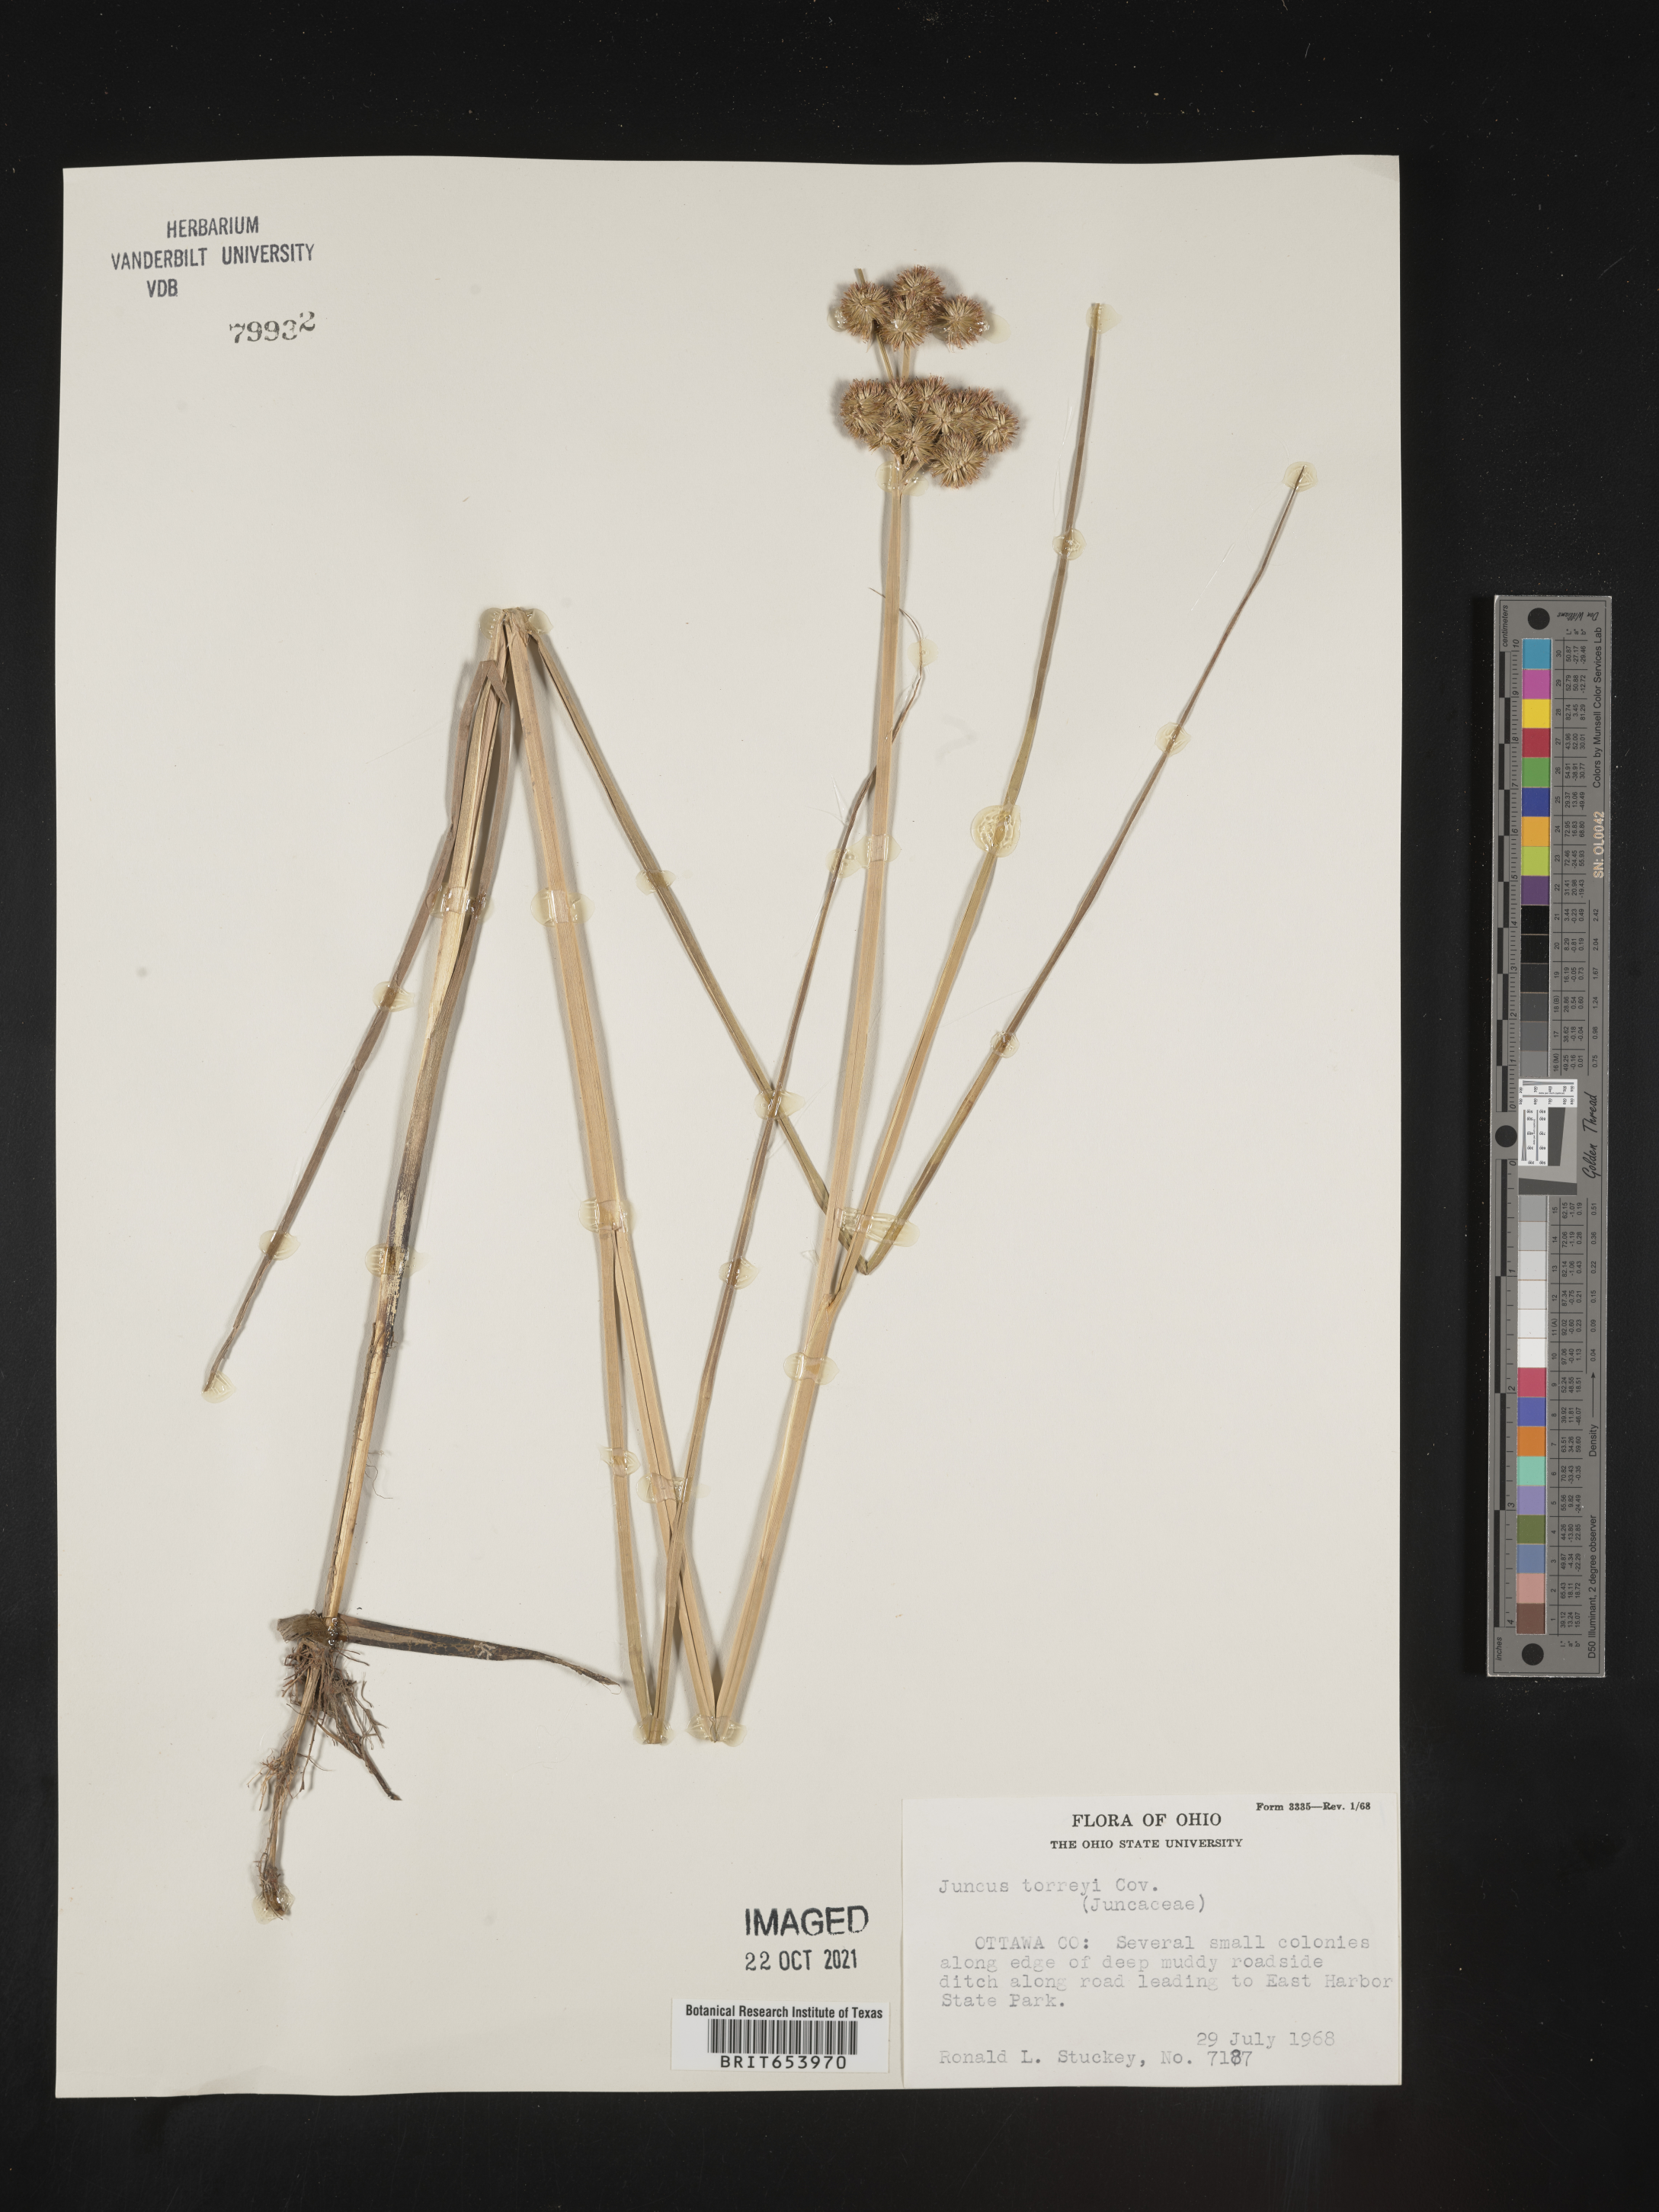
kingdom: Plantae
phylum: Tracheophyta
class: Liliopsida
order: Poales
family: Juncaceae
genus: Juncus
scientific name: Juncus torreyi
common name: Torrey's rush
